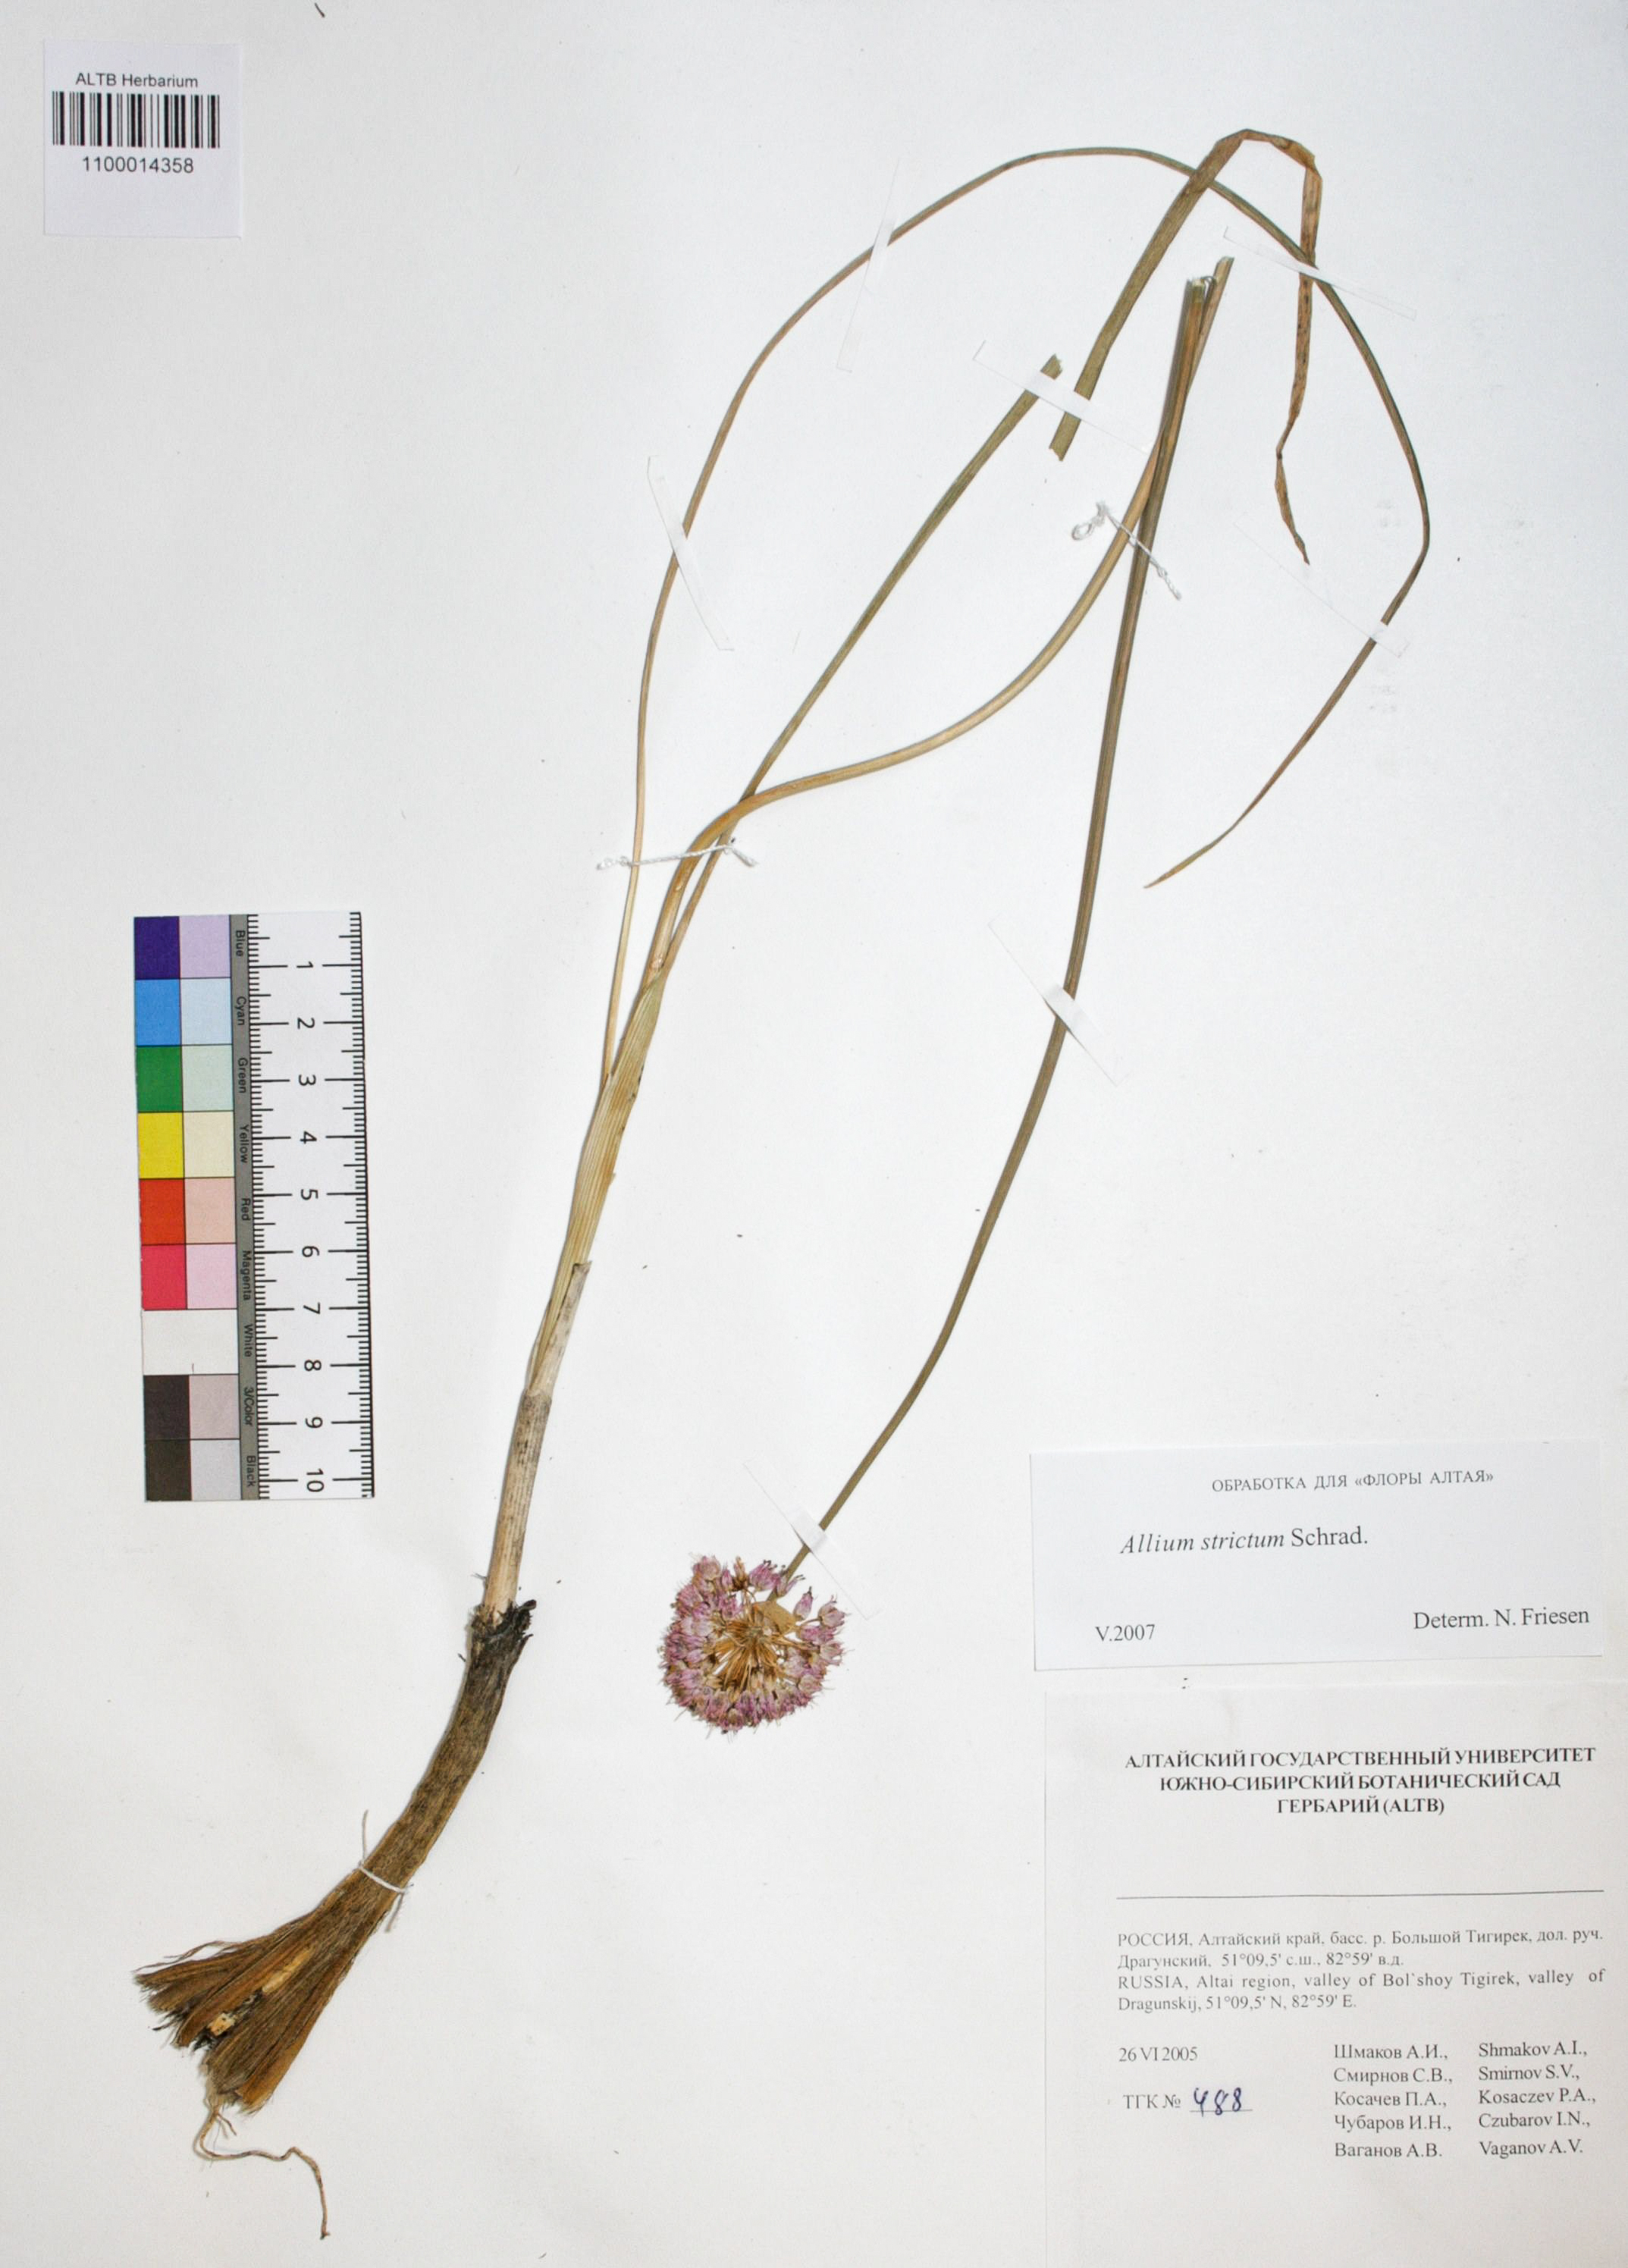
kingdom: Plantae
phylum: Tracheophyta
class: Liliopsida
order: Asparagales
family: Amaryllidaceae
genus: Allium
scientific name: Allium strictum
